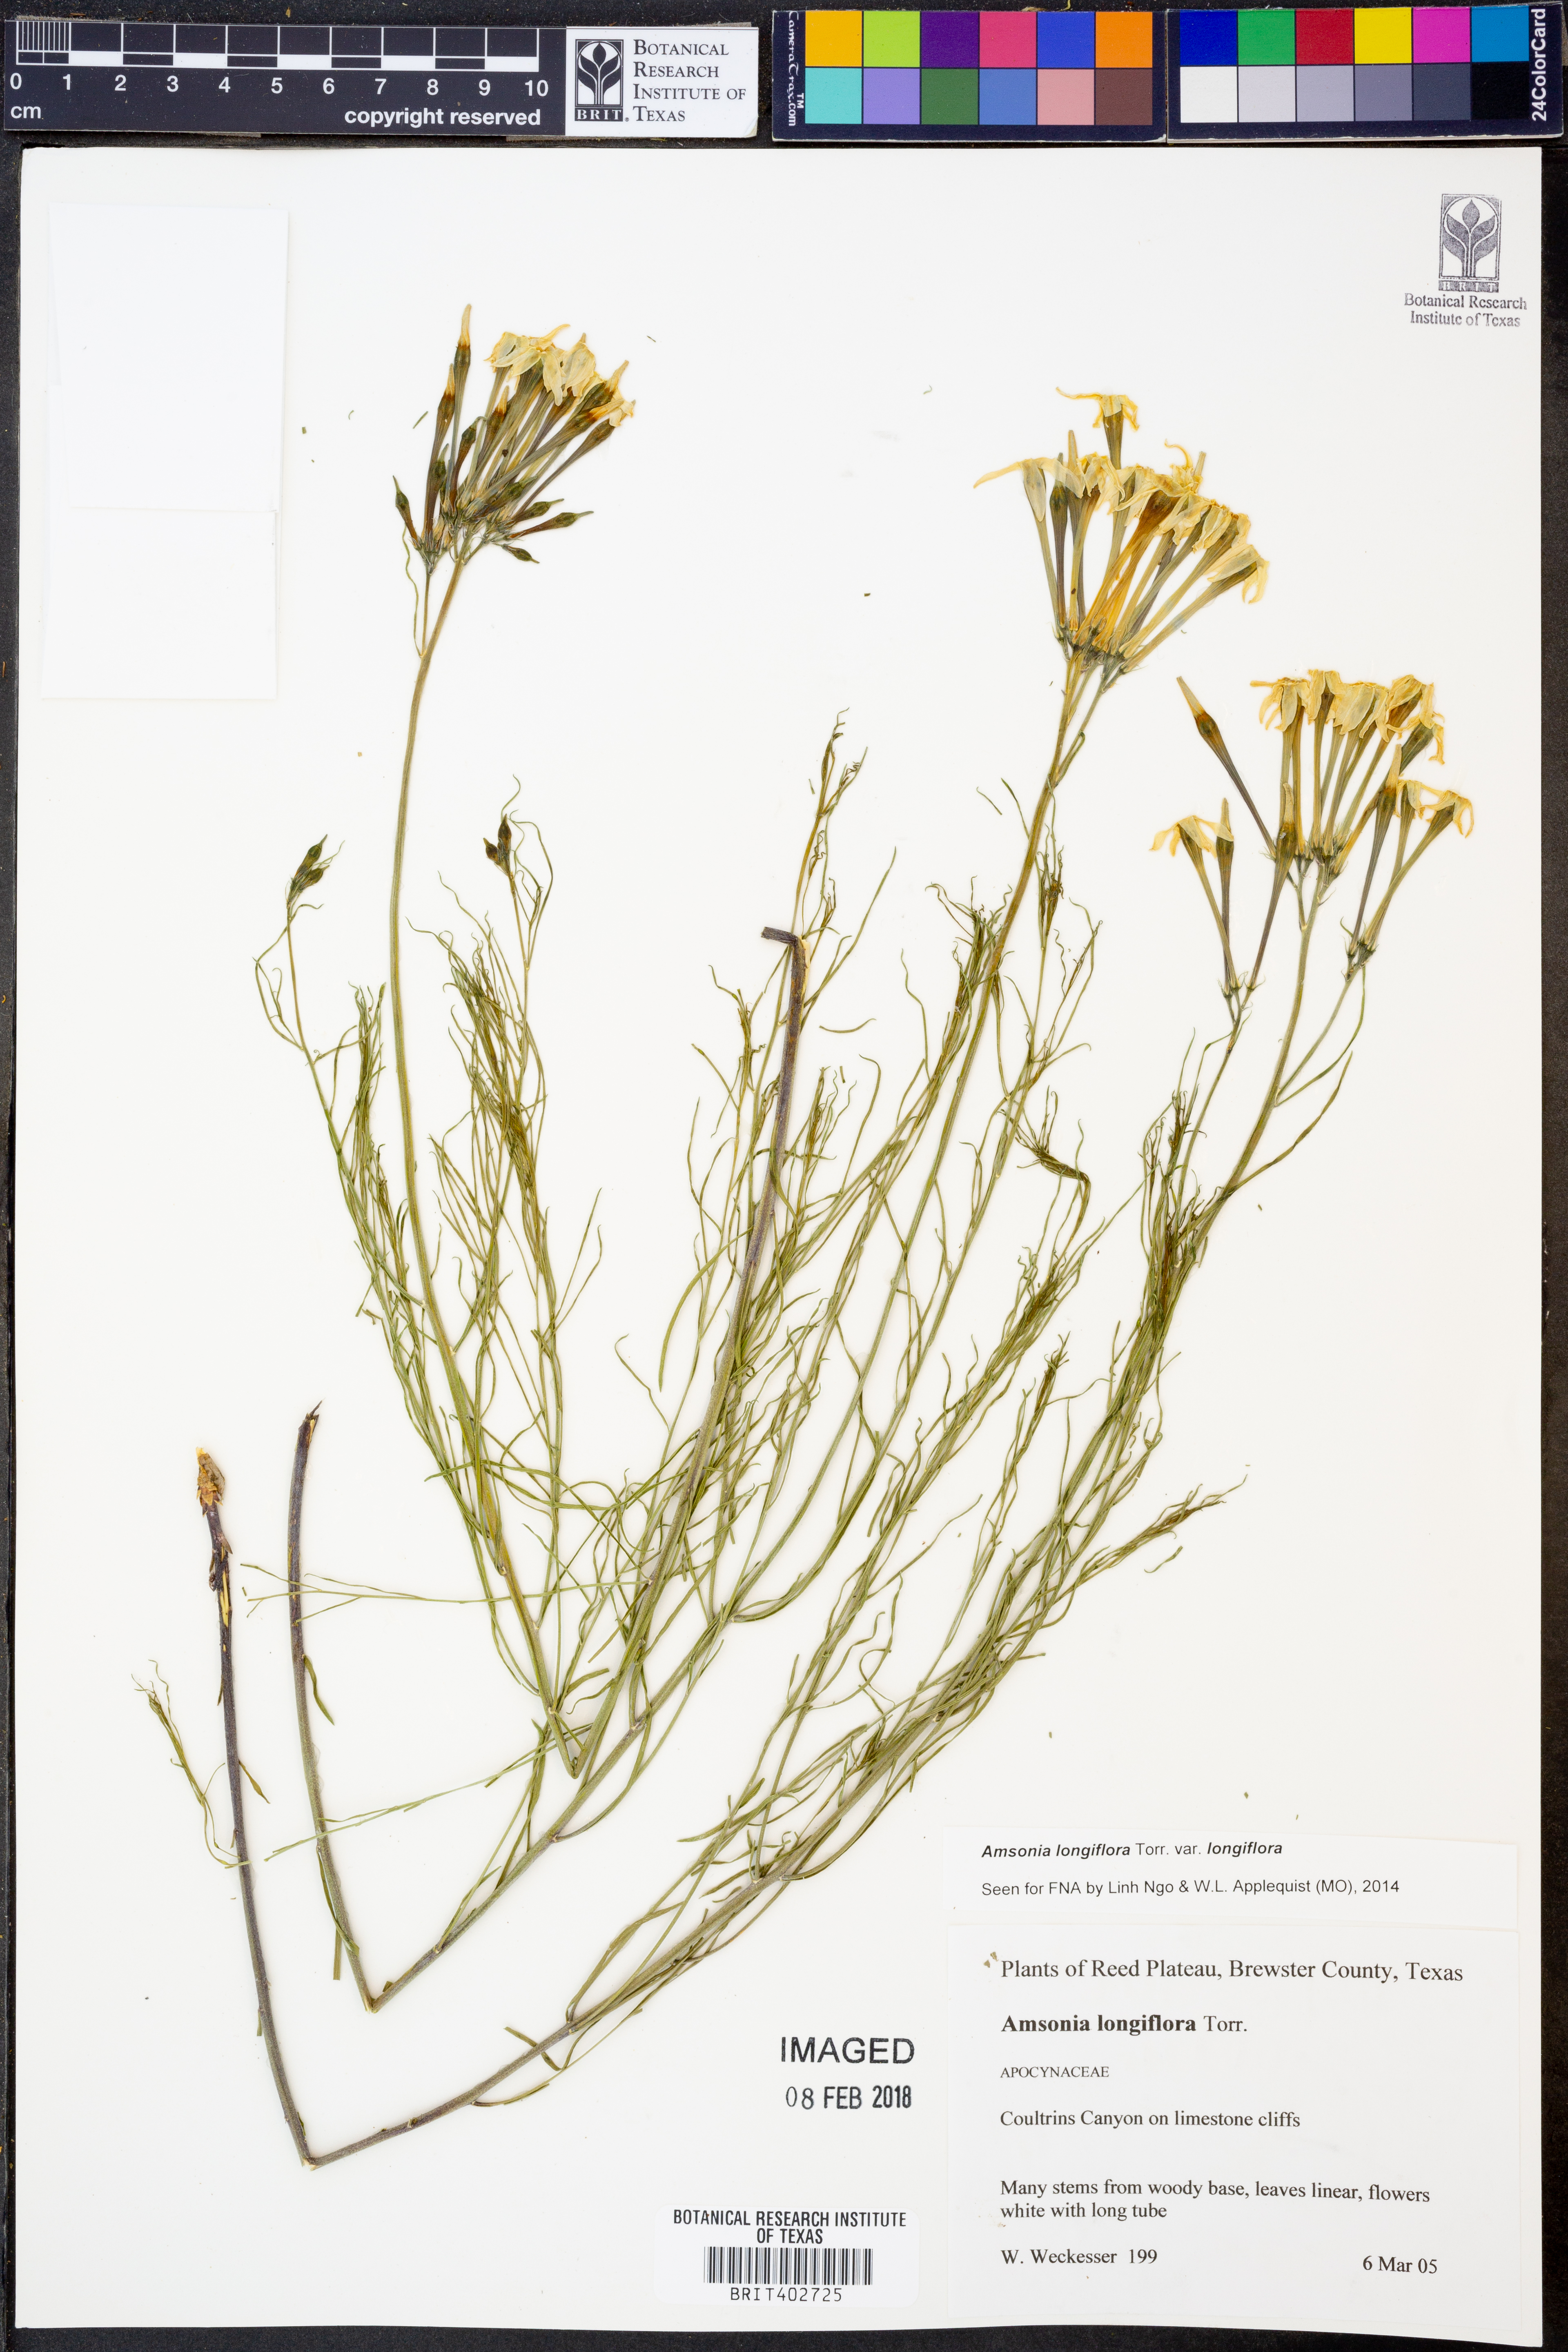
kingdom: Plantae
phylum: Tracheophyta
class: Magnoliopsida
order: Gentianales
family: Apocynaceae
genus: Amsonia
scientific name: Amsonia longiflora
